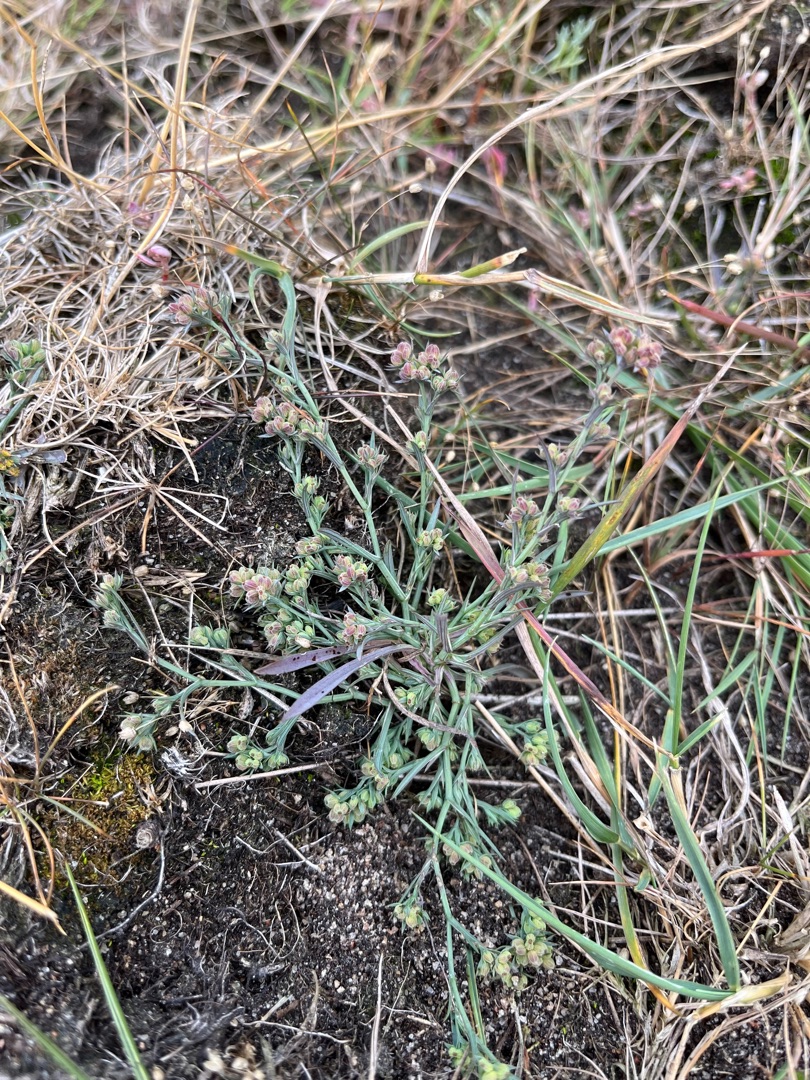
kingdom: Plantae
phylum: Tracheophyta
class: Magnoliopsida
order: Apiales
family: Apiaceae
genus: Bupleurum
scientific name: Bupleurum tenuissimum
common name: Smalbladet hareøre
